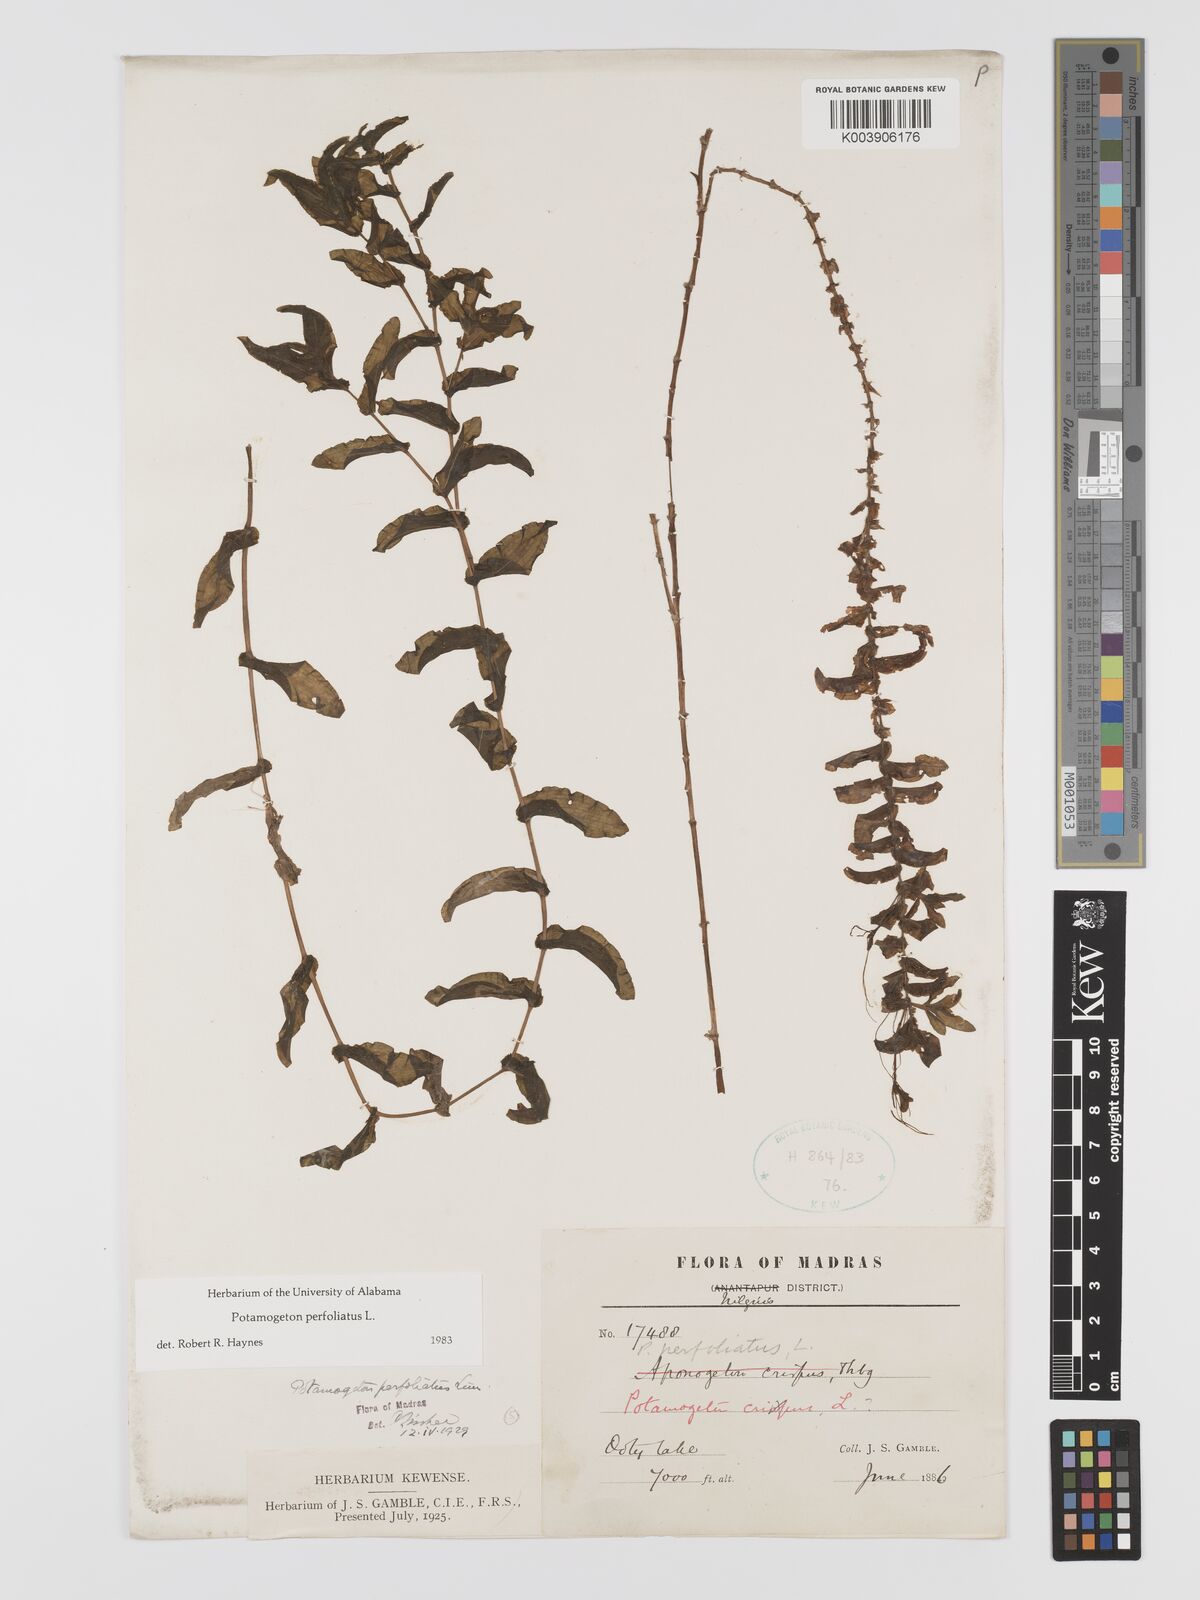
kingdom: Plantae
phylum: Tracheophyta
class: Liliopsida
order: Alismatales
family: Potamogetonaceae
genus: Potamogeton
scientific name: Potamogeton perfoliatus
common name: Perfoliate pondweed
